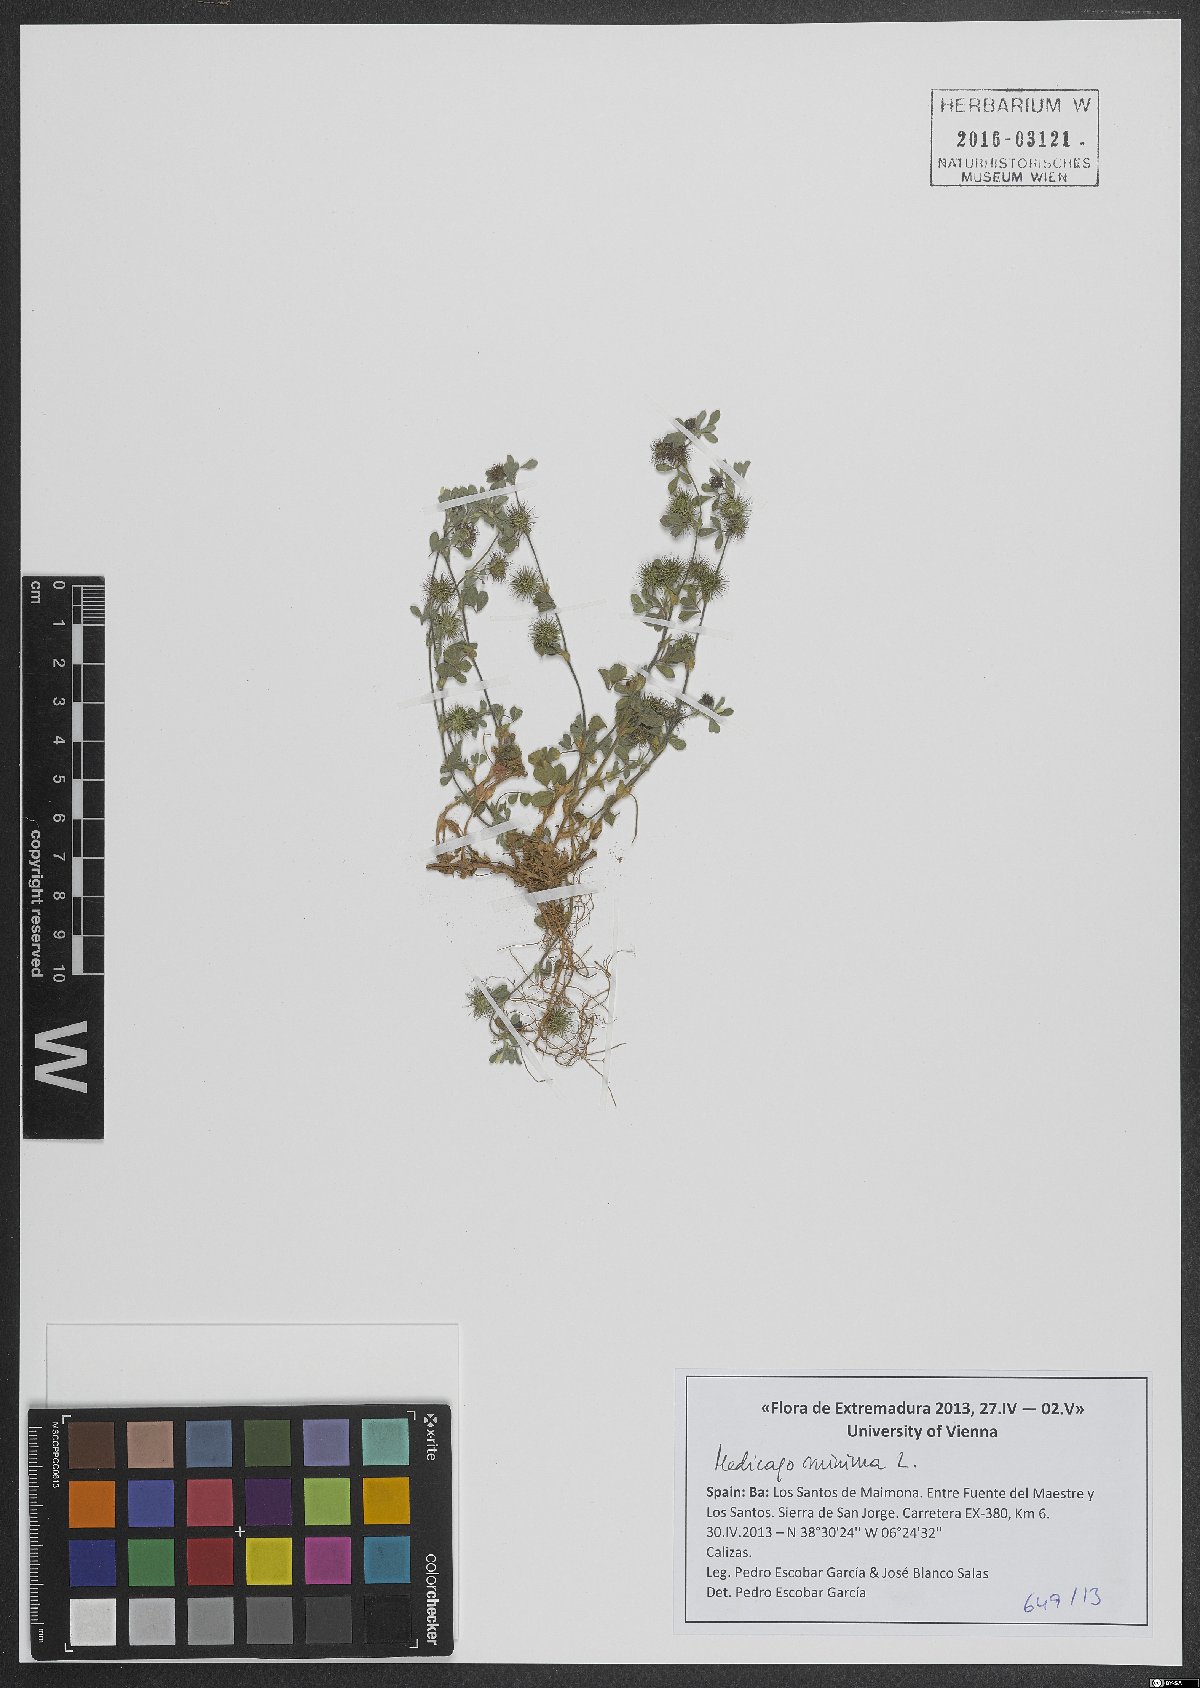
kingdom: Plantae
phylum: Tracheophyta
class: Magnoliopsida
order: Fabales
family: Fabaceae
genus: Medicago
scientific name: Medicago minima
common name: Little bur-clover
